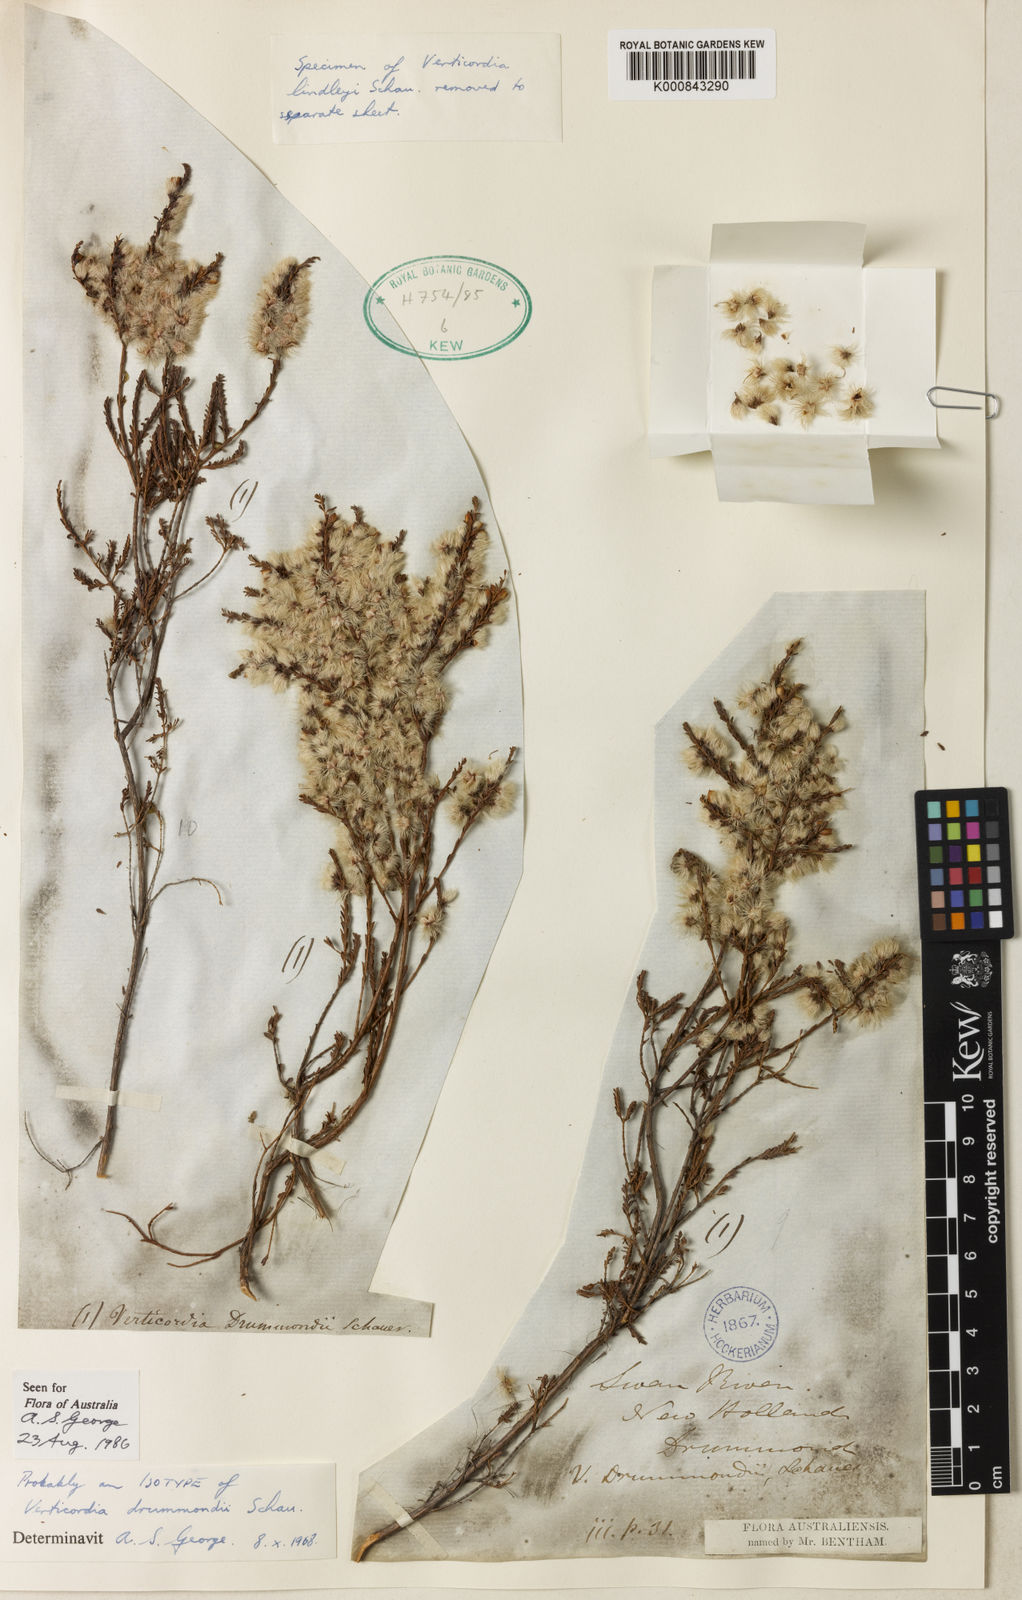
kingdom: Plantae
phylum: Tracheophyta
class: Magnoliopsida
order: Myrtales
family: Myrtaceae
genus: Verticordia
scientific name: Verticordia drummondii
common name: Drummond's feather-flower
